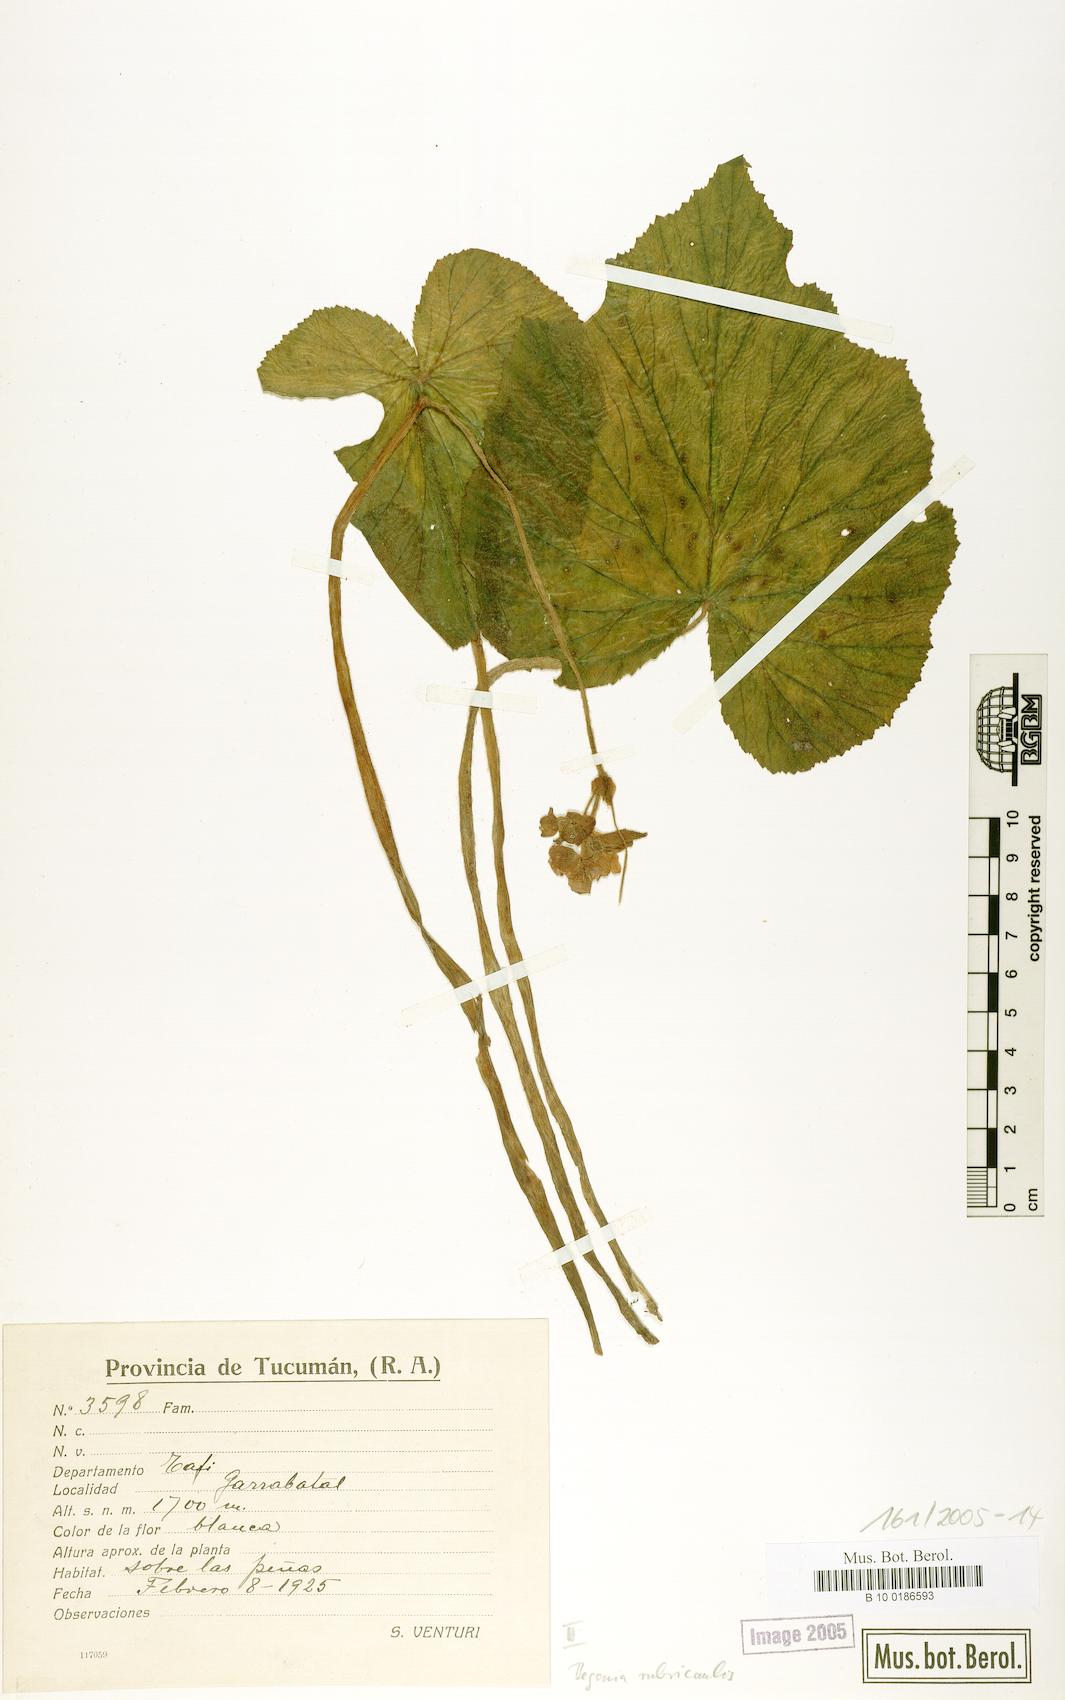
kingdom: Plantae
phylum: Tracheophyta
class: Magnoliopsida
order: Cucurbitales
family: Begoniaceae
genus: Begonia
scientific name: Begonia rubricaulis
